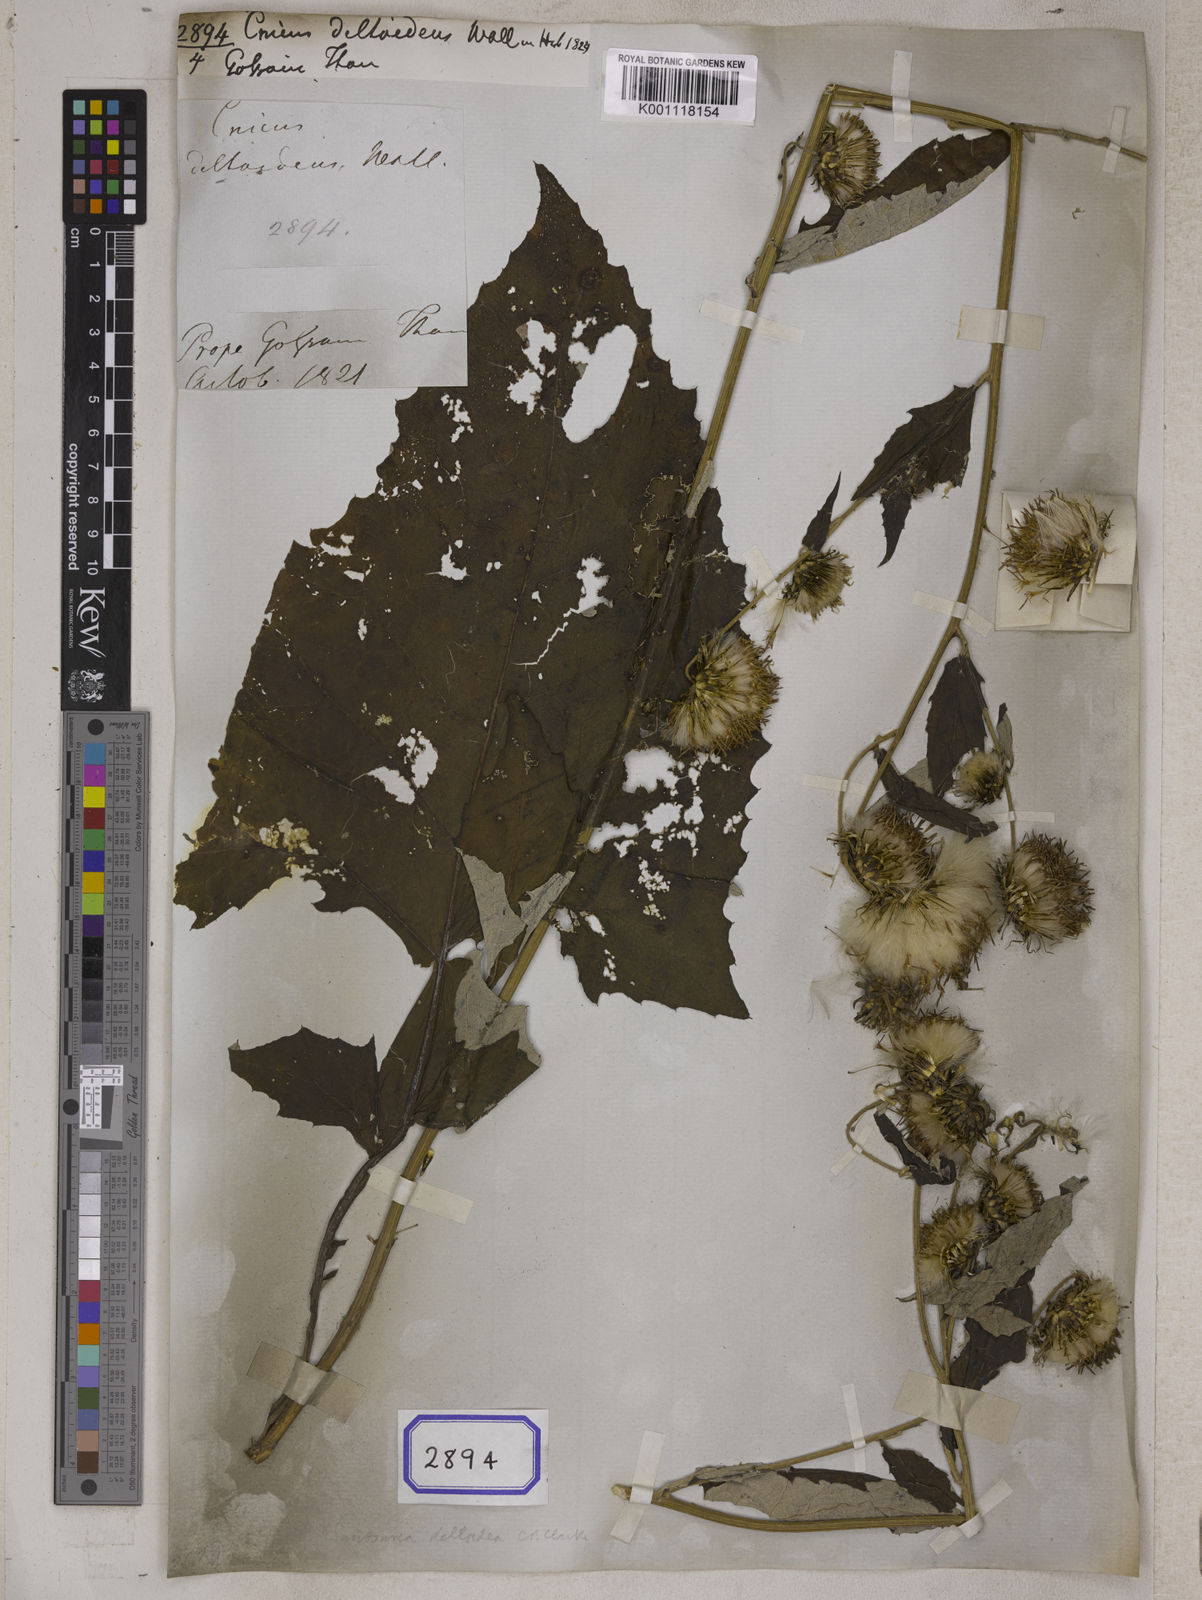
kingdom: Plantae
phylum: Tracheophyta
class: Magnoliopsida
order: Asterales
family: Asteraceae
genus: Jurinea
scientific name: Jurinea deltoidea
